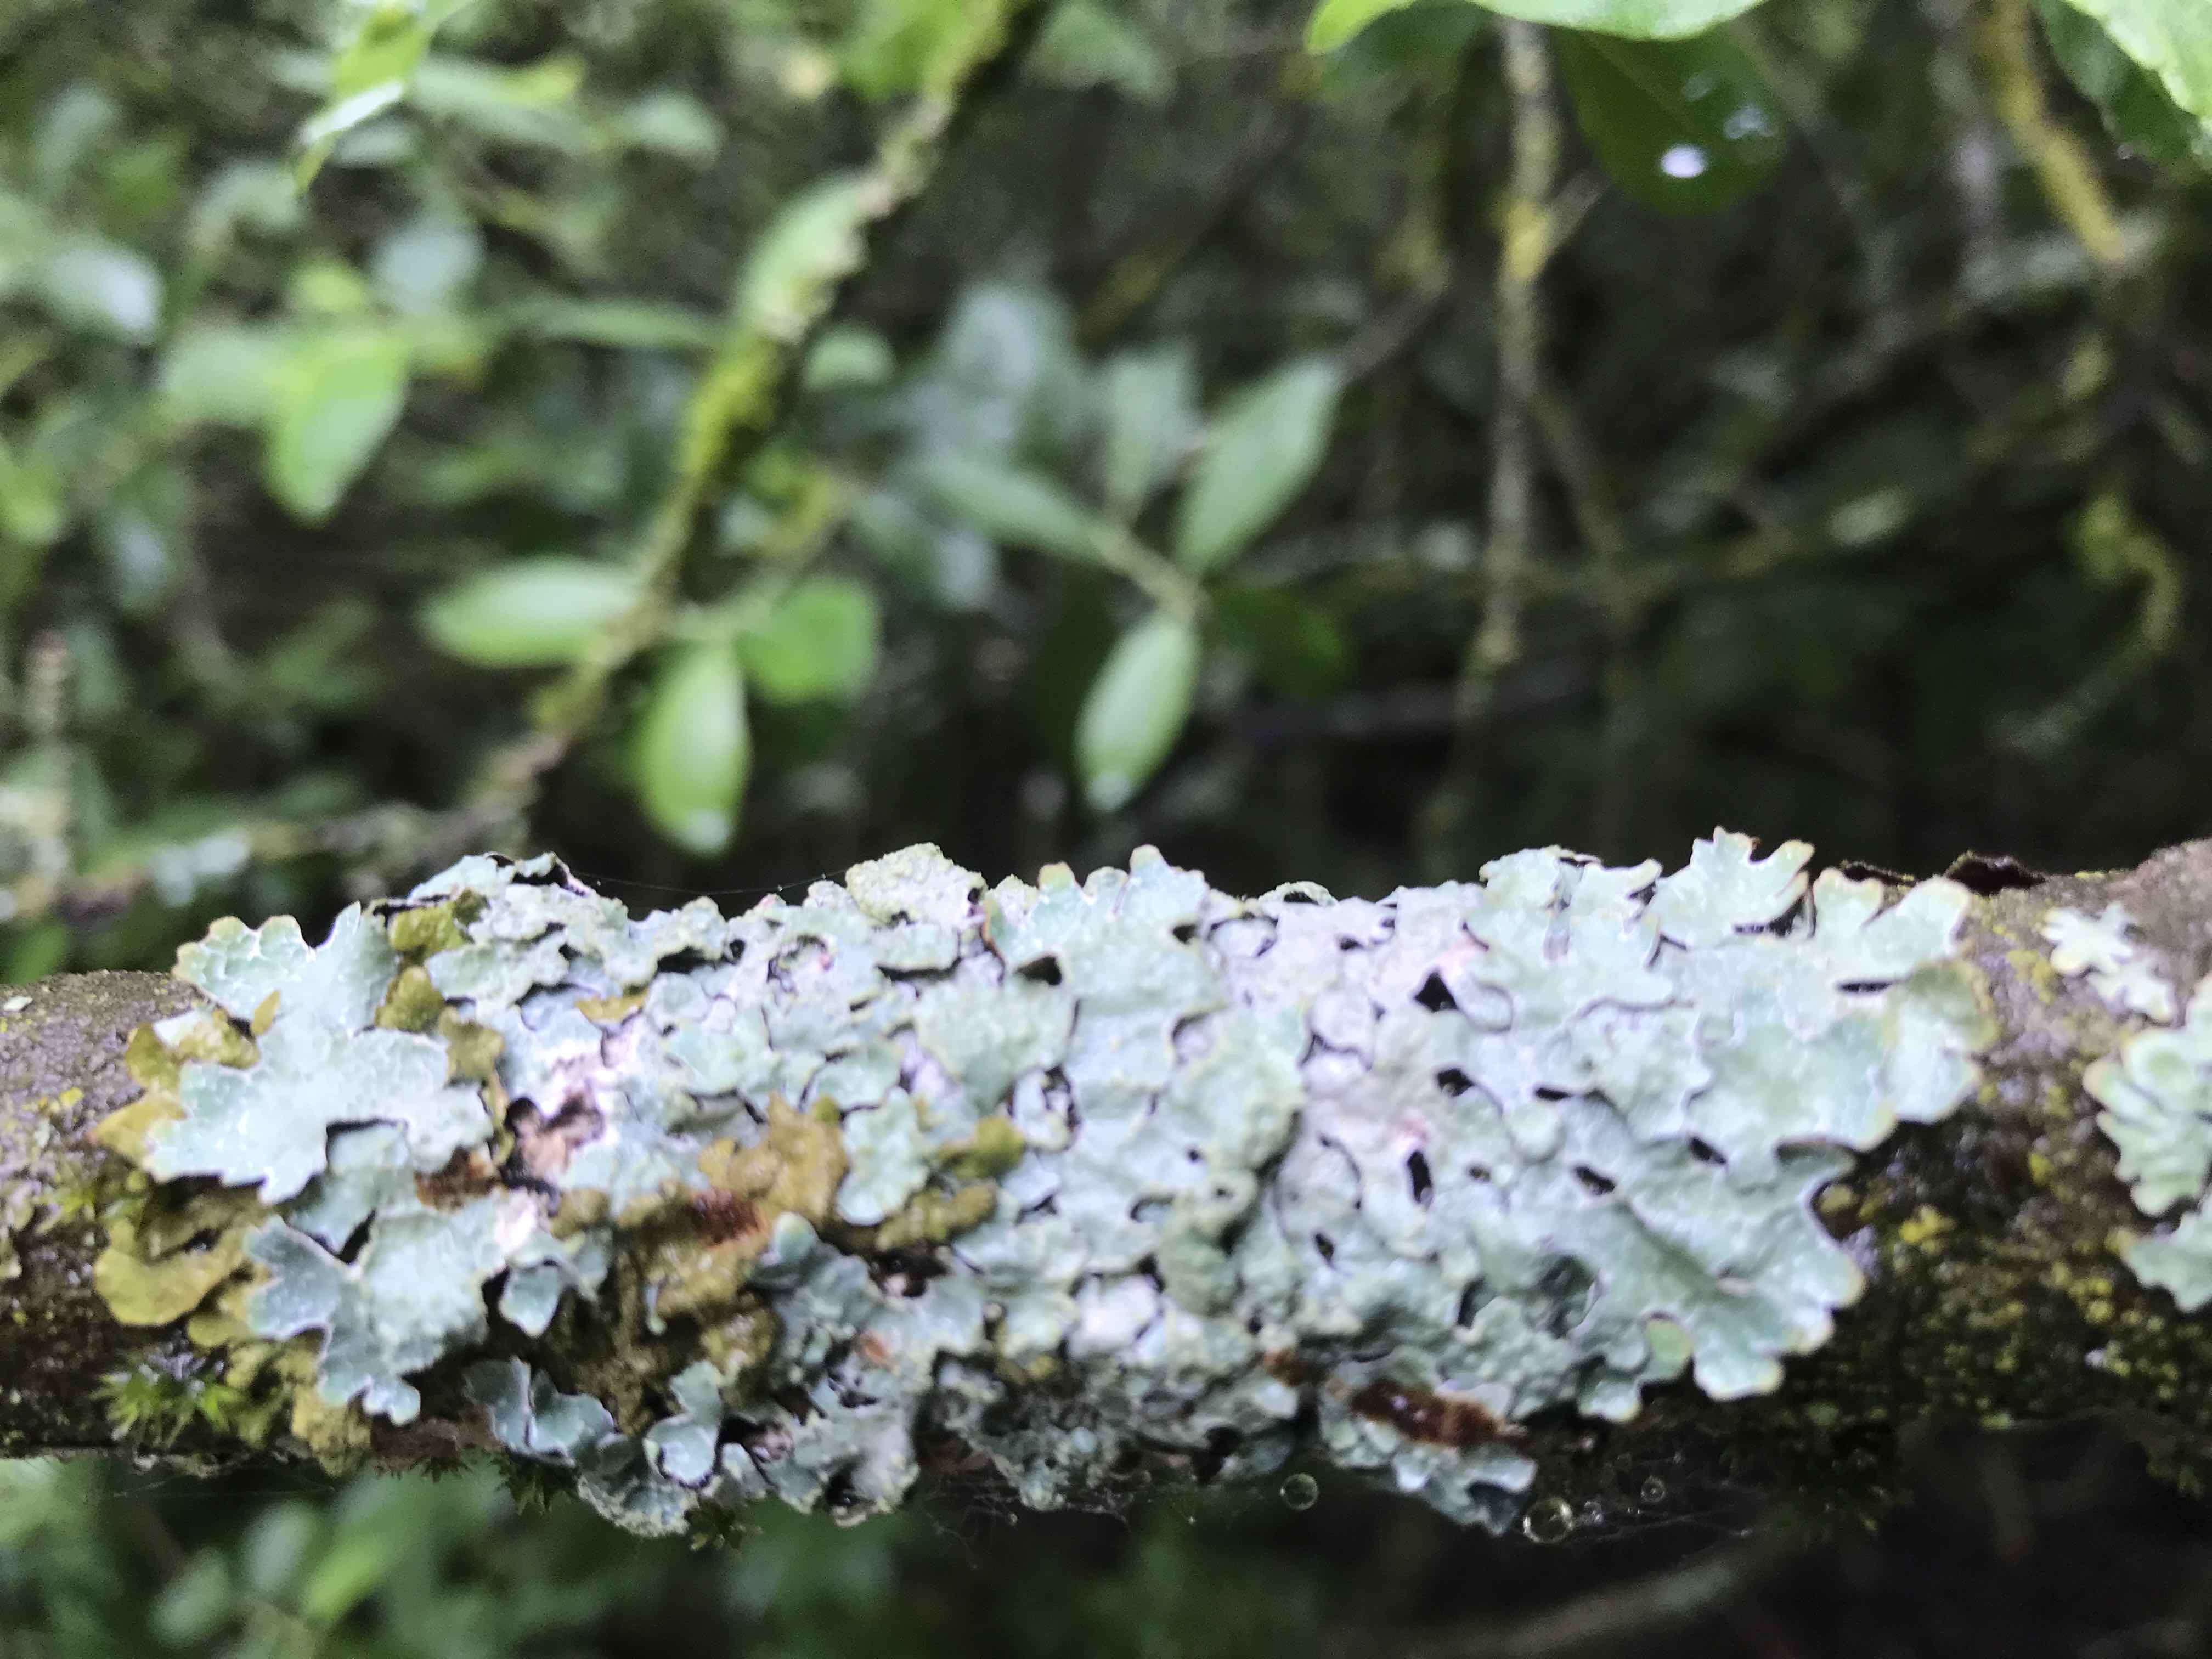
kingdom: Fungi
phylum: Ascomycota
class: Lecanoromycetes
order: Lecanorales
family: Parmeliaceae
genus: Parmelia
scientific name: Parmelia sulcata
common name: rynket skållav
